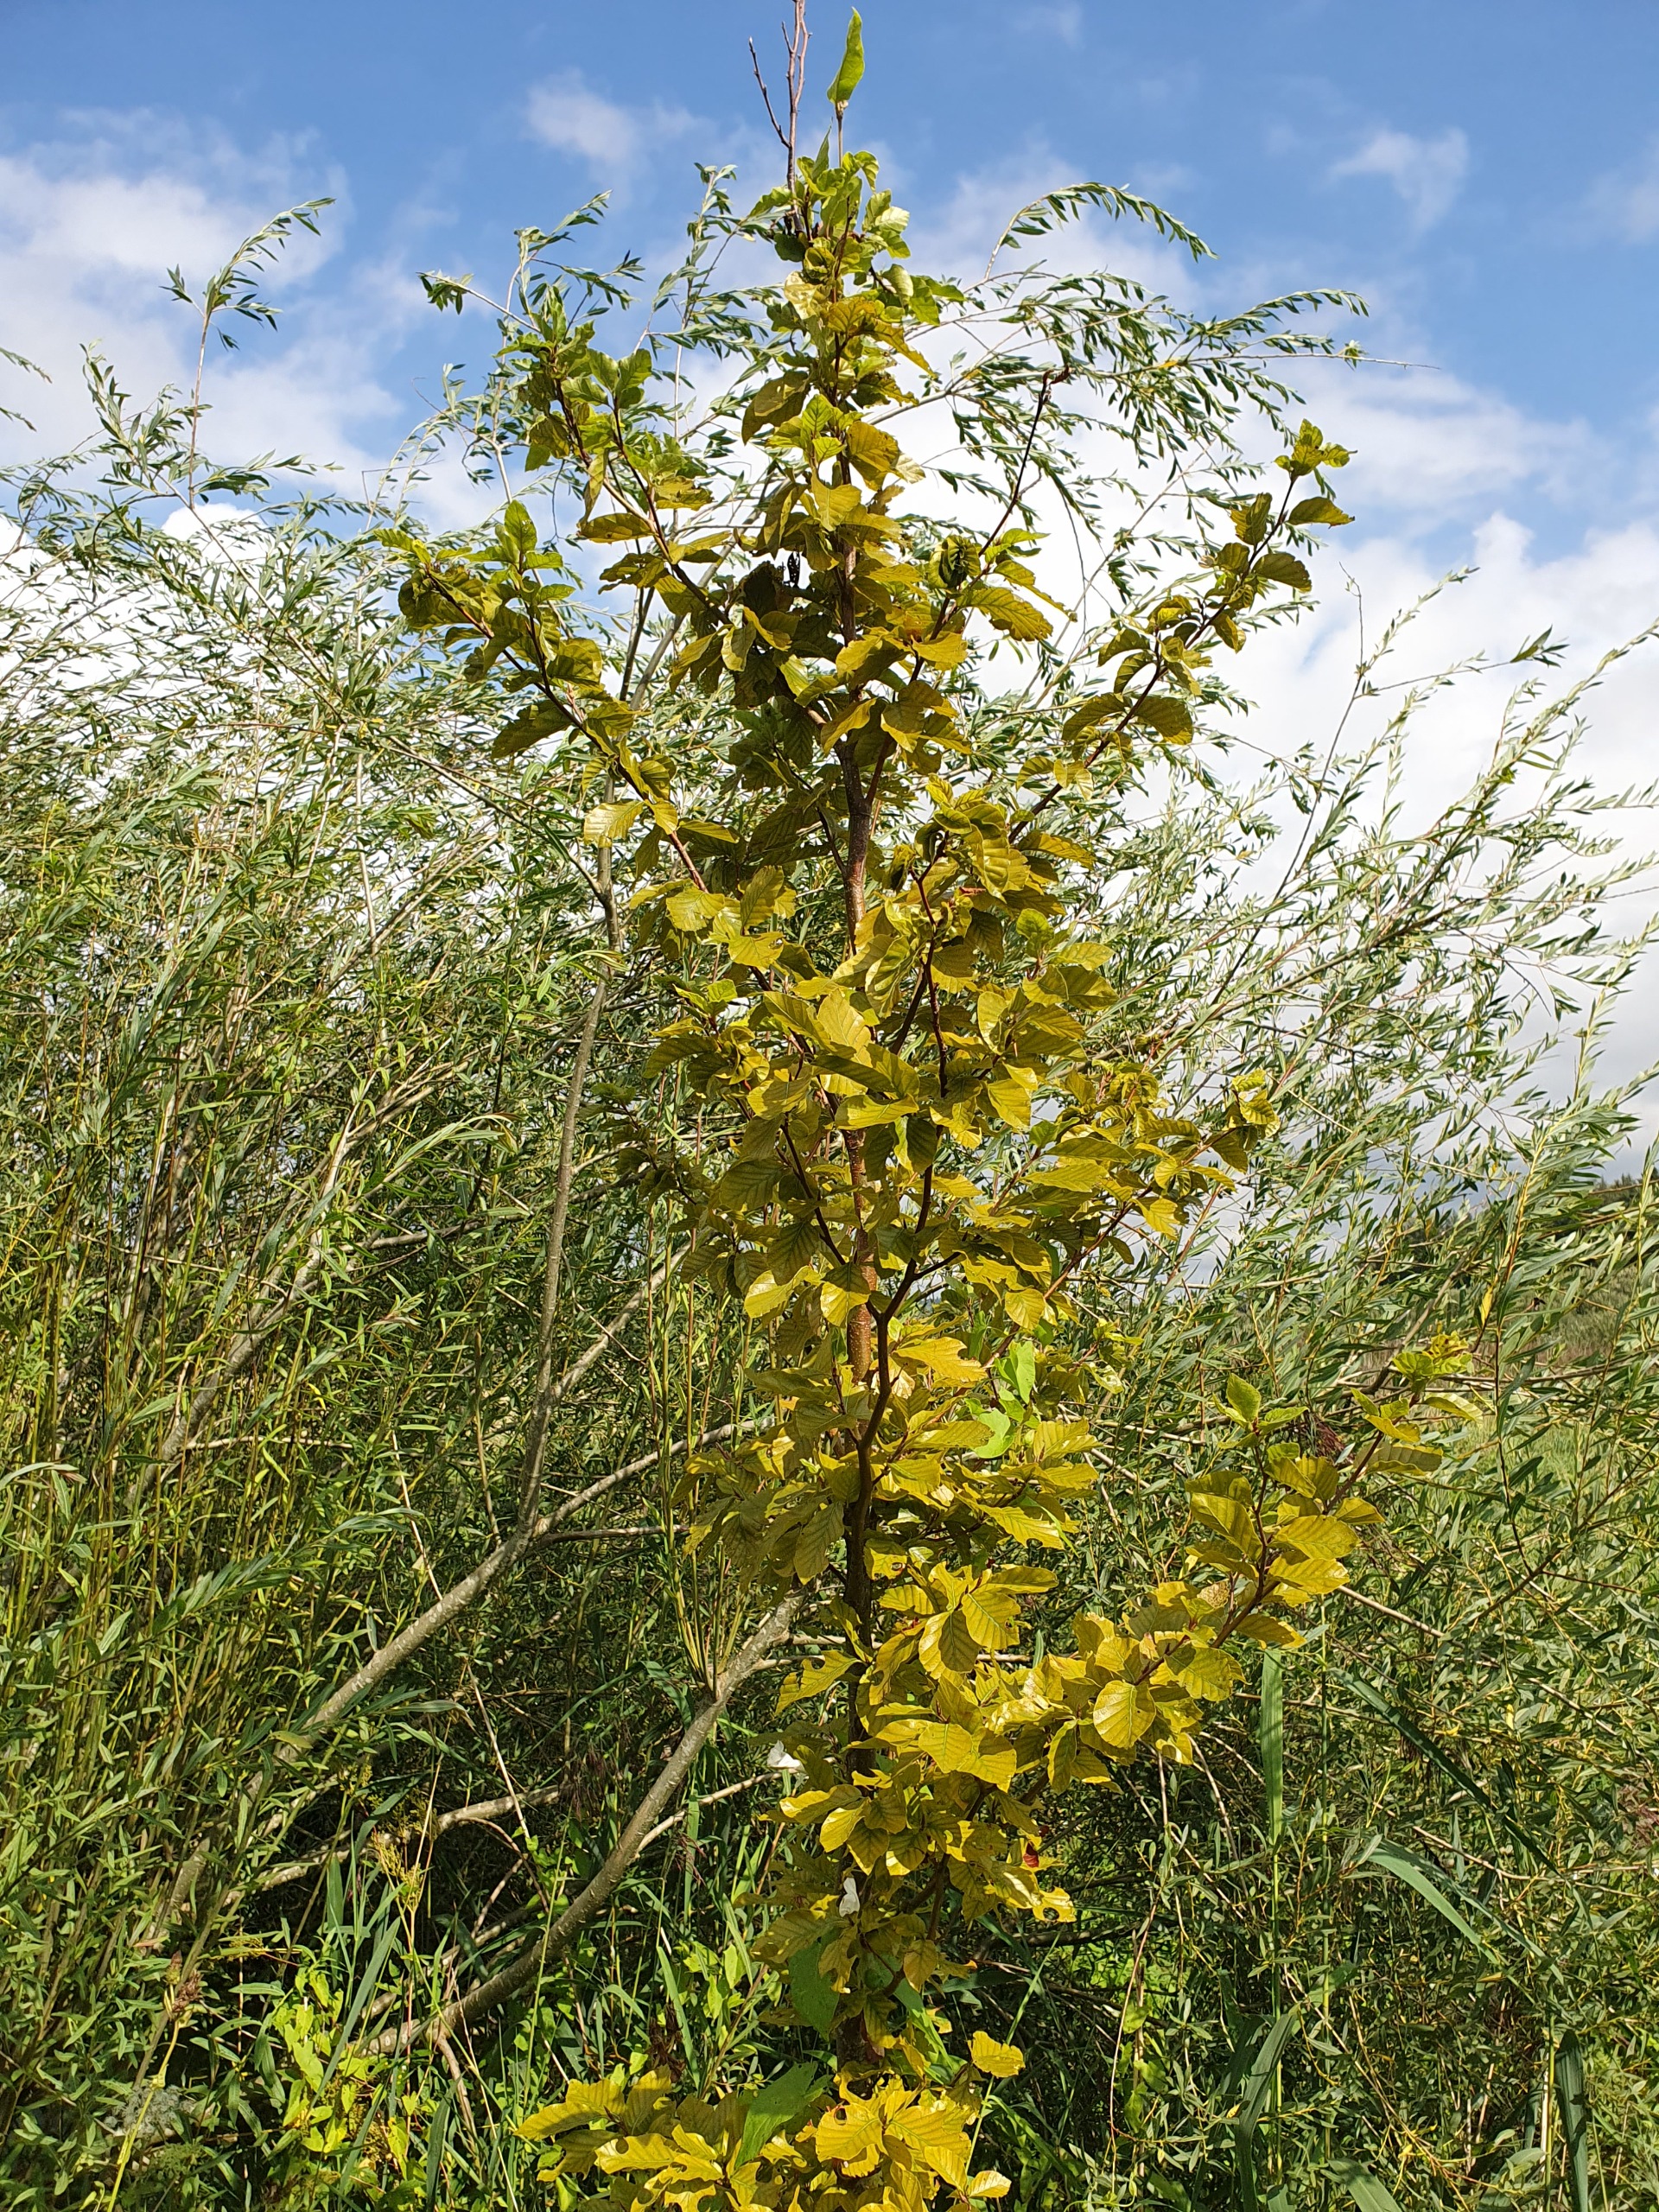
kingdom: Plantae
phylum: Tracheophyta
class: Magnoliopsida
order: Fagales
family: Fagaceae
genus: Fagus
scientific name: Fagus sylvatica
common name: Bøg
